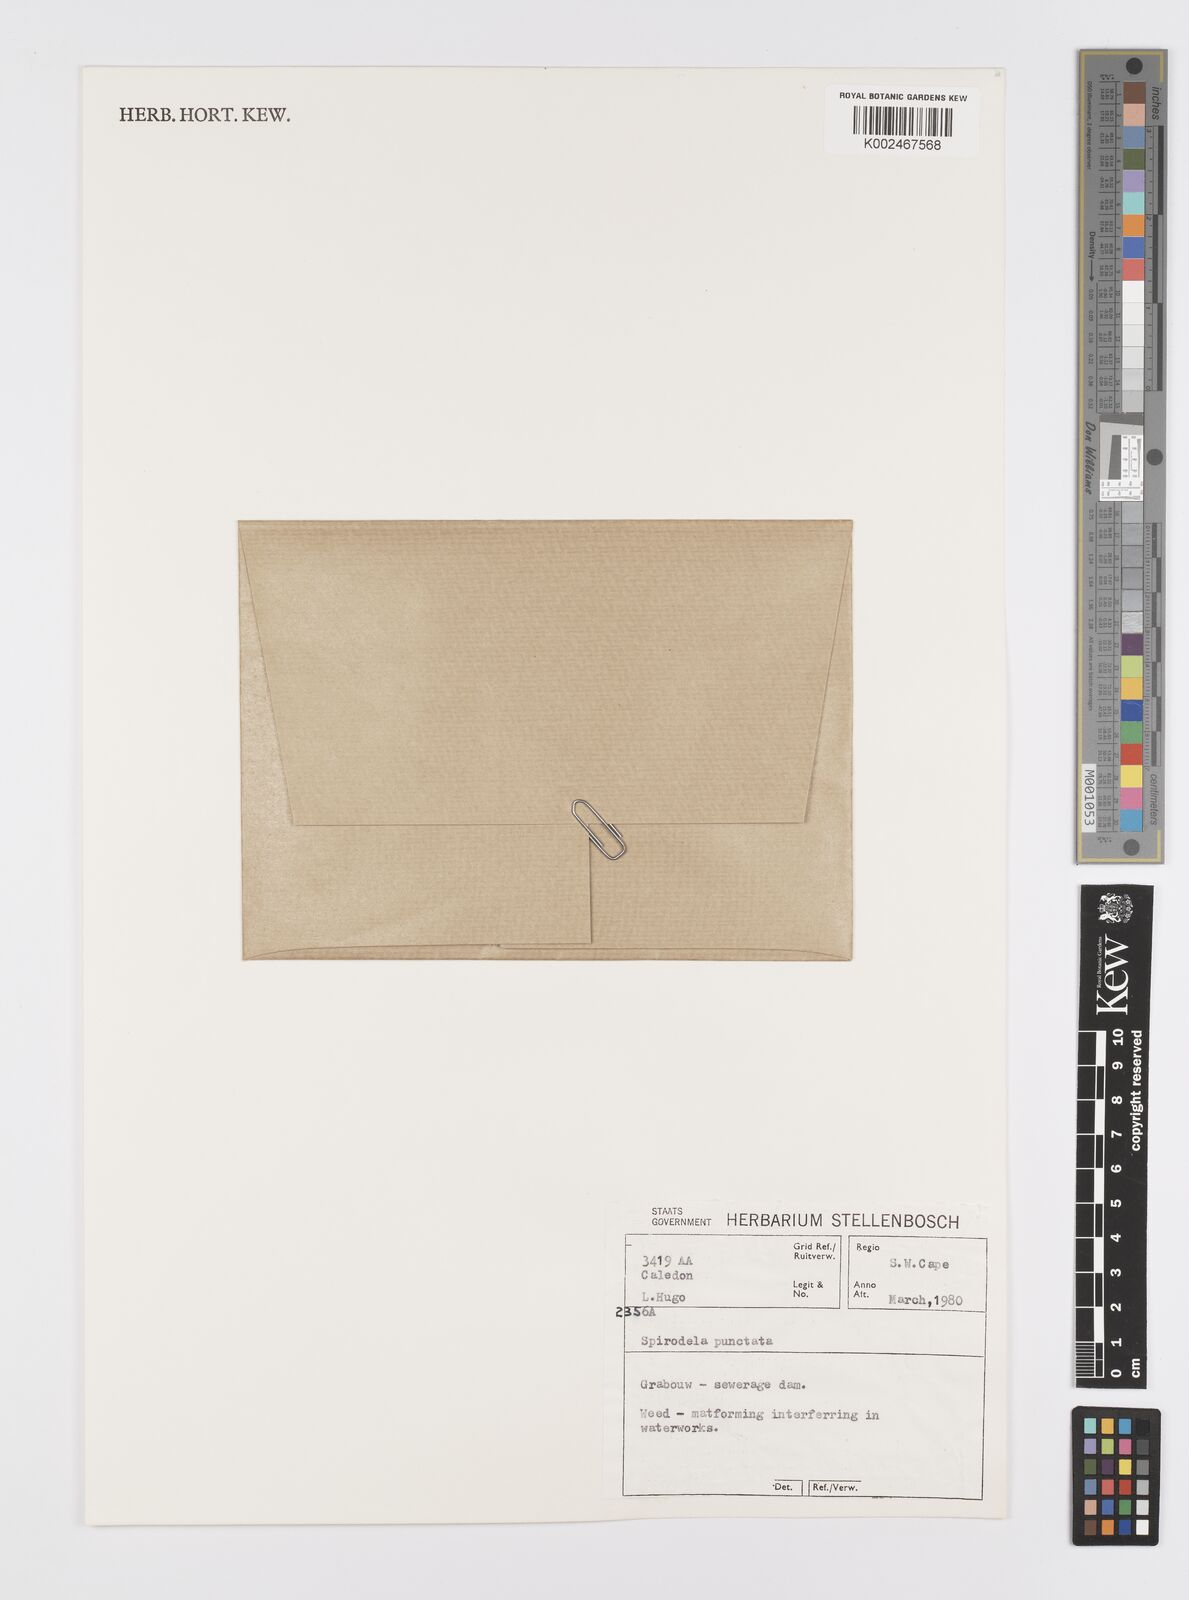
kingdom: Plantae
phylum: Tracheophyta
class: Liliopsida
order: Alismatales
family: Araceae
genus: Spirodela
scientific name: Spirodela punctata
